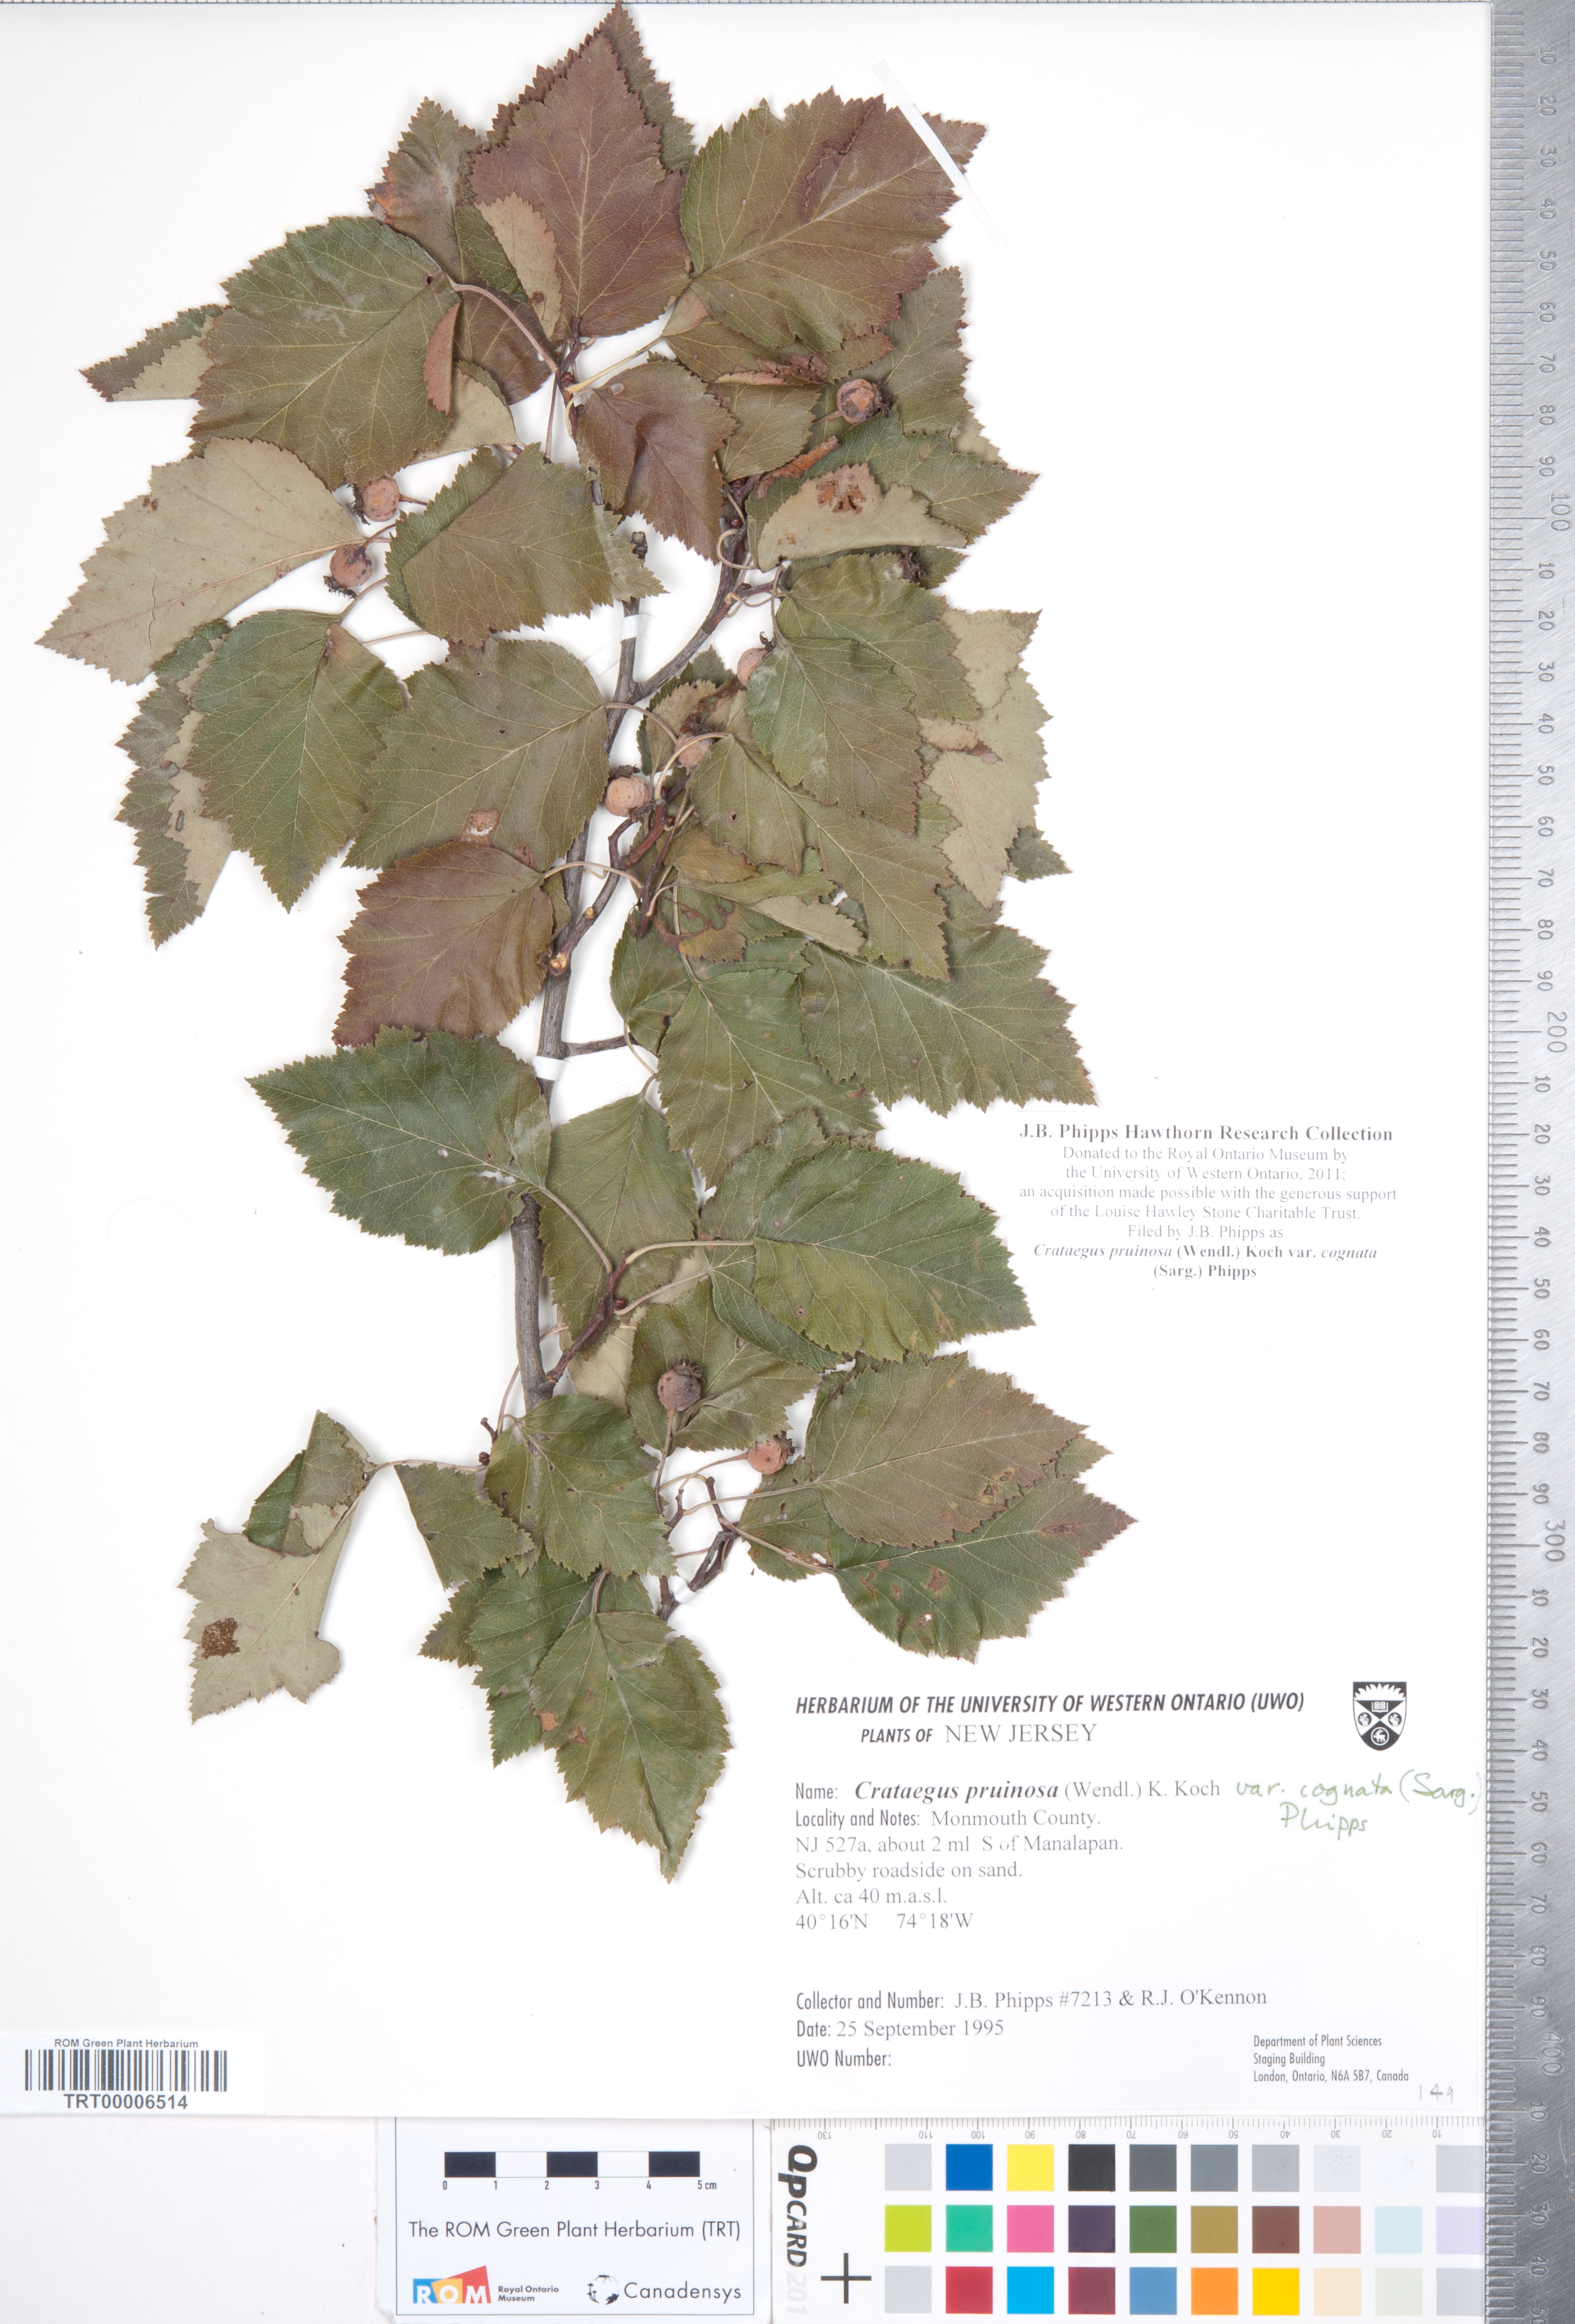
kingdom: Plantae
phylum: Tracheophyta
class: Magnoliopsida
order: Rosales
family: Rosaceae
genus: Crataegus
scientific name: Crataegus
